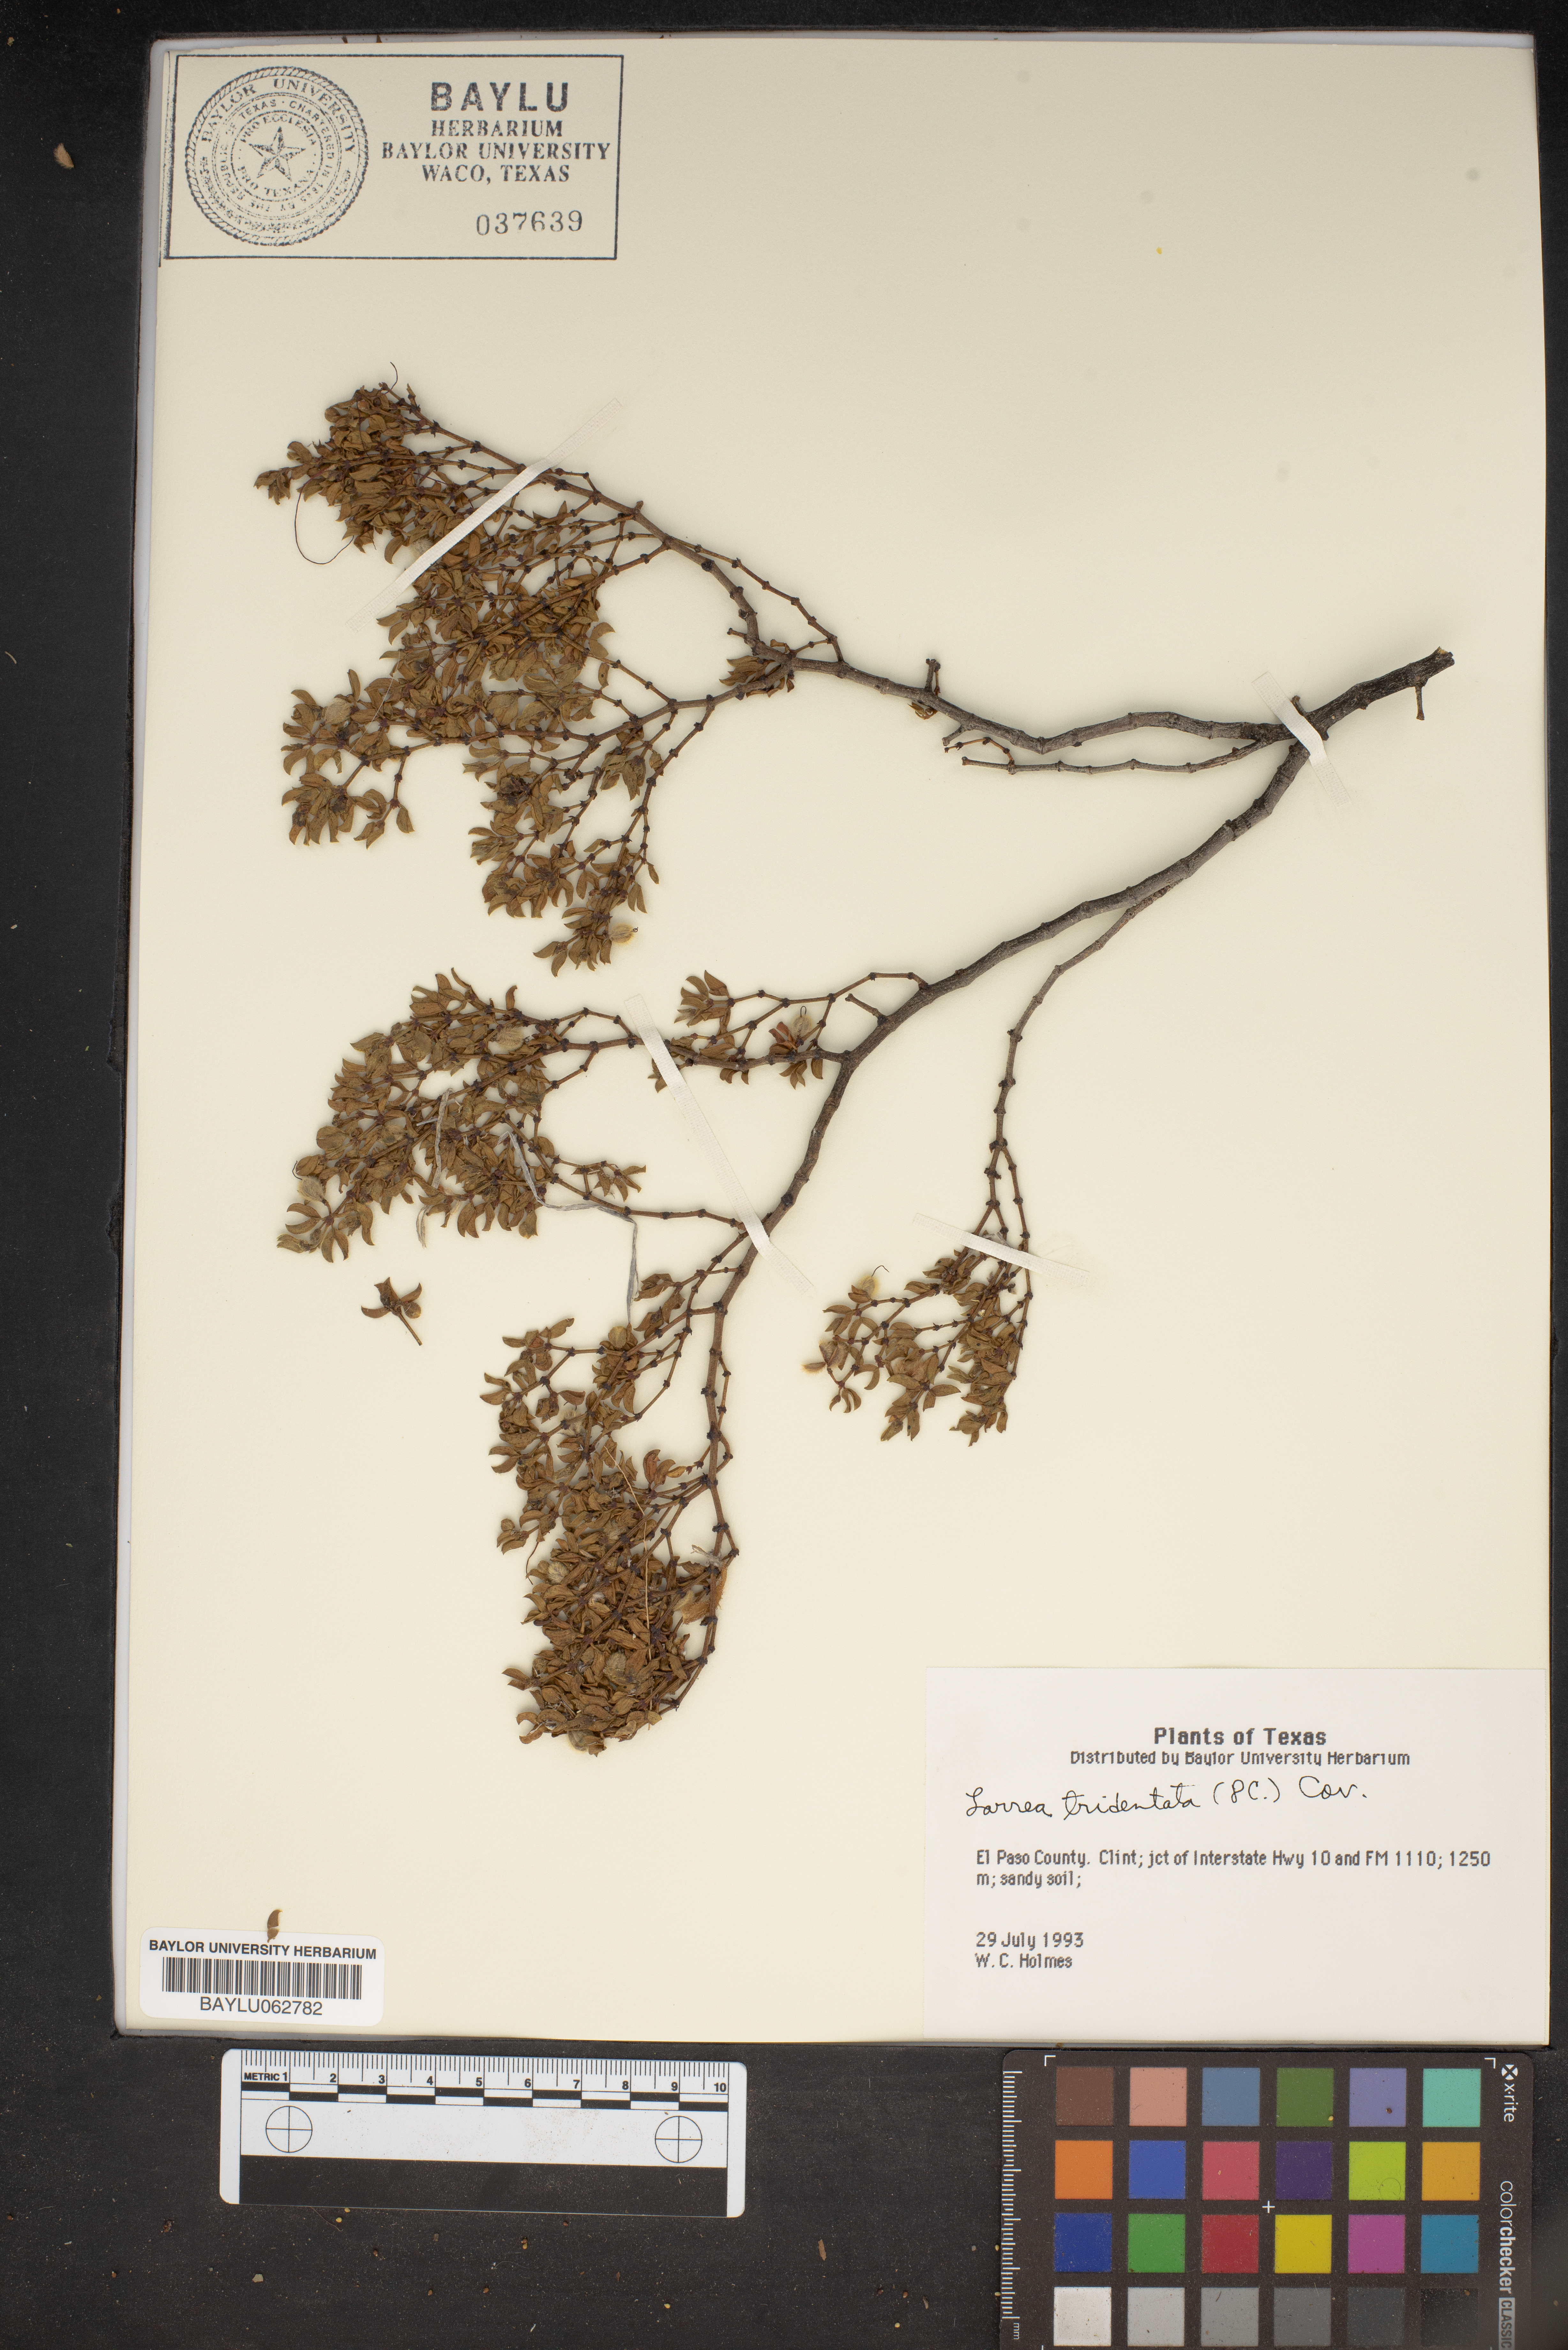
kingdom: Plantae
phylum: Tracheophyta
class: Magnoliopsida
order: Zygophyllales
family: Zygophyllaceae
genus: Larrea
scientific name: Larrea tridentata
